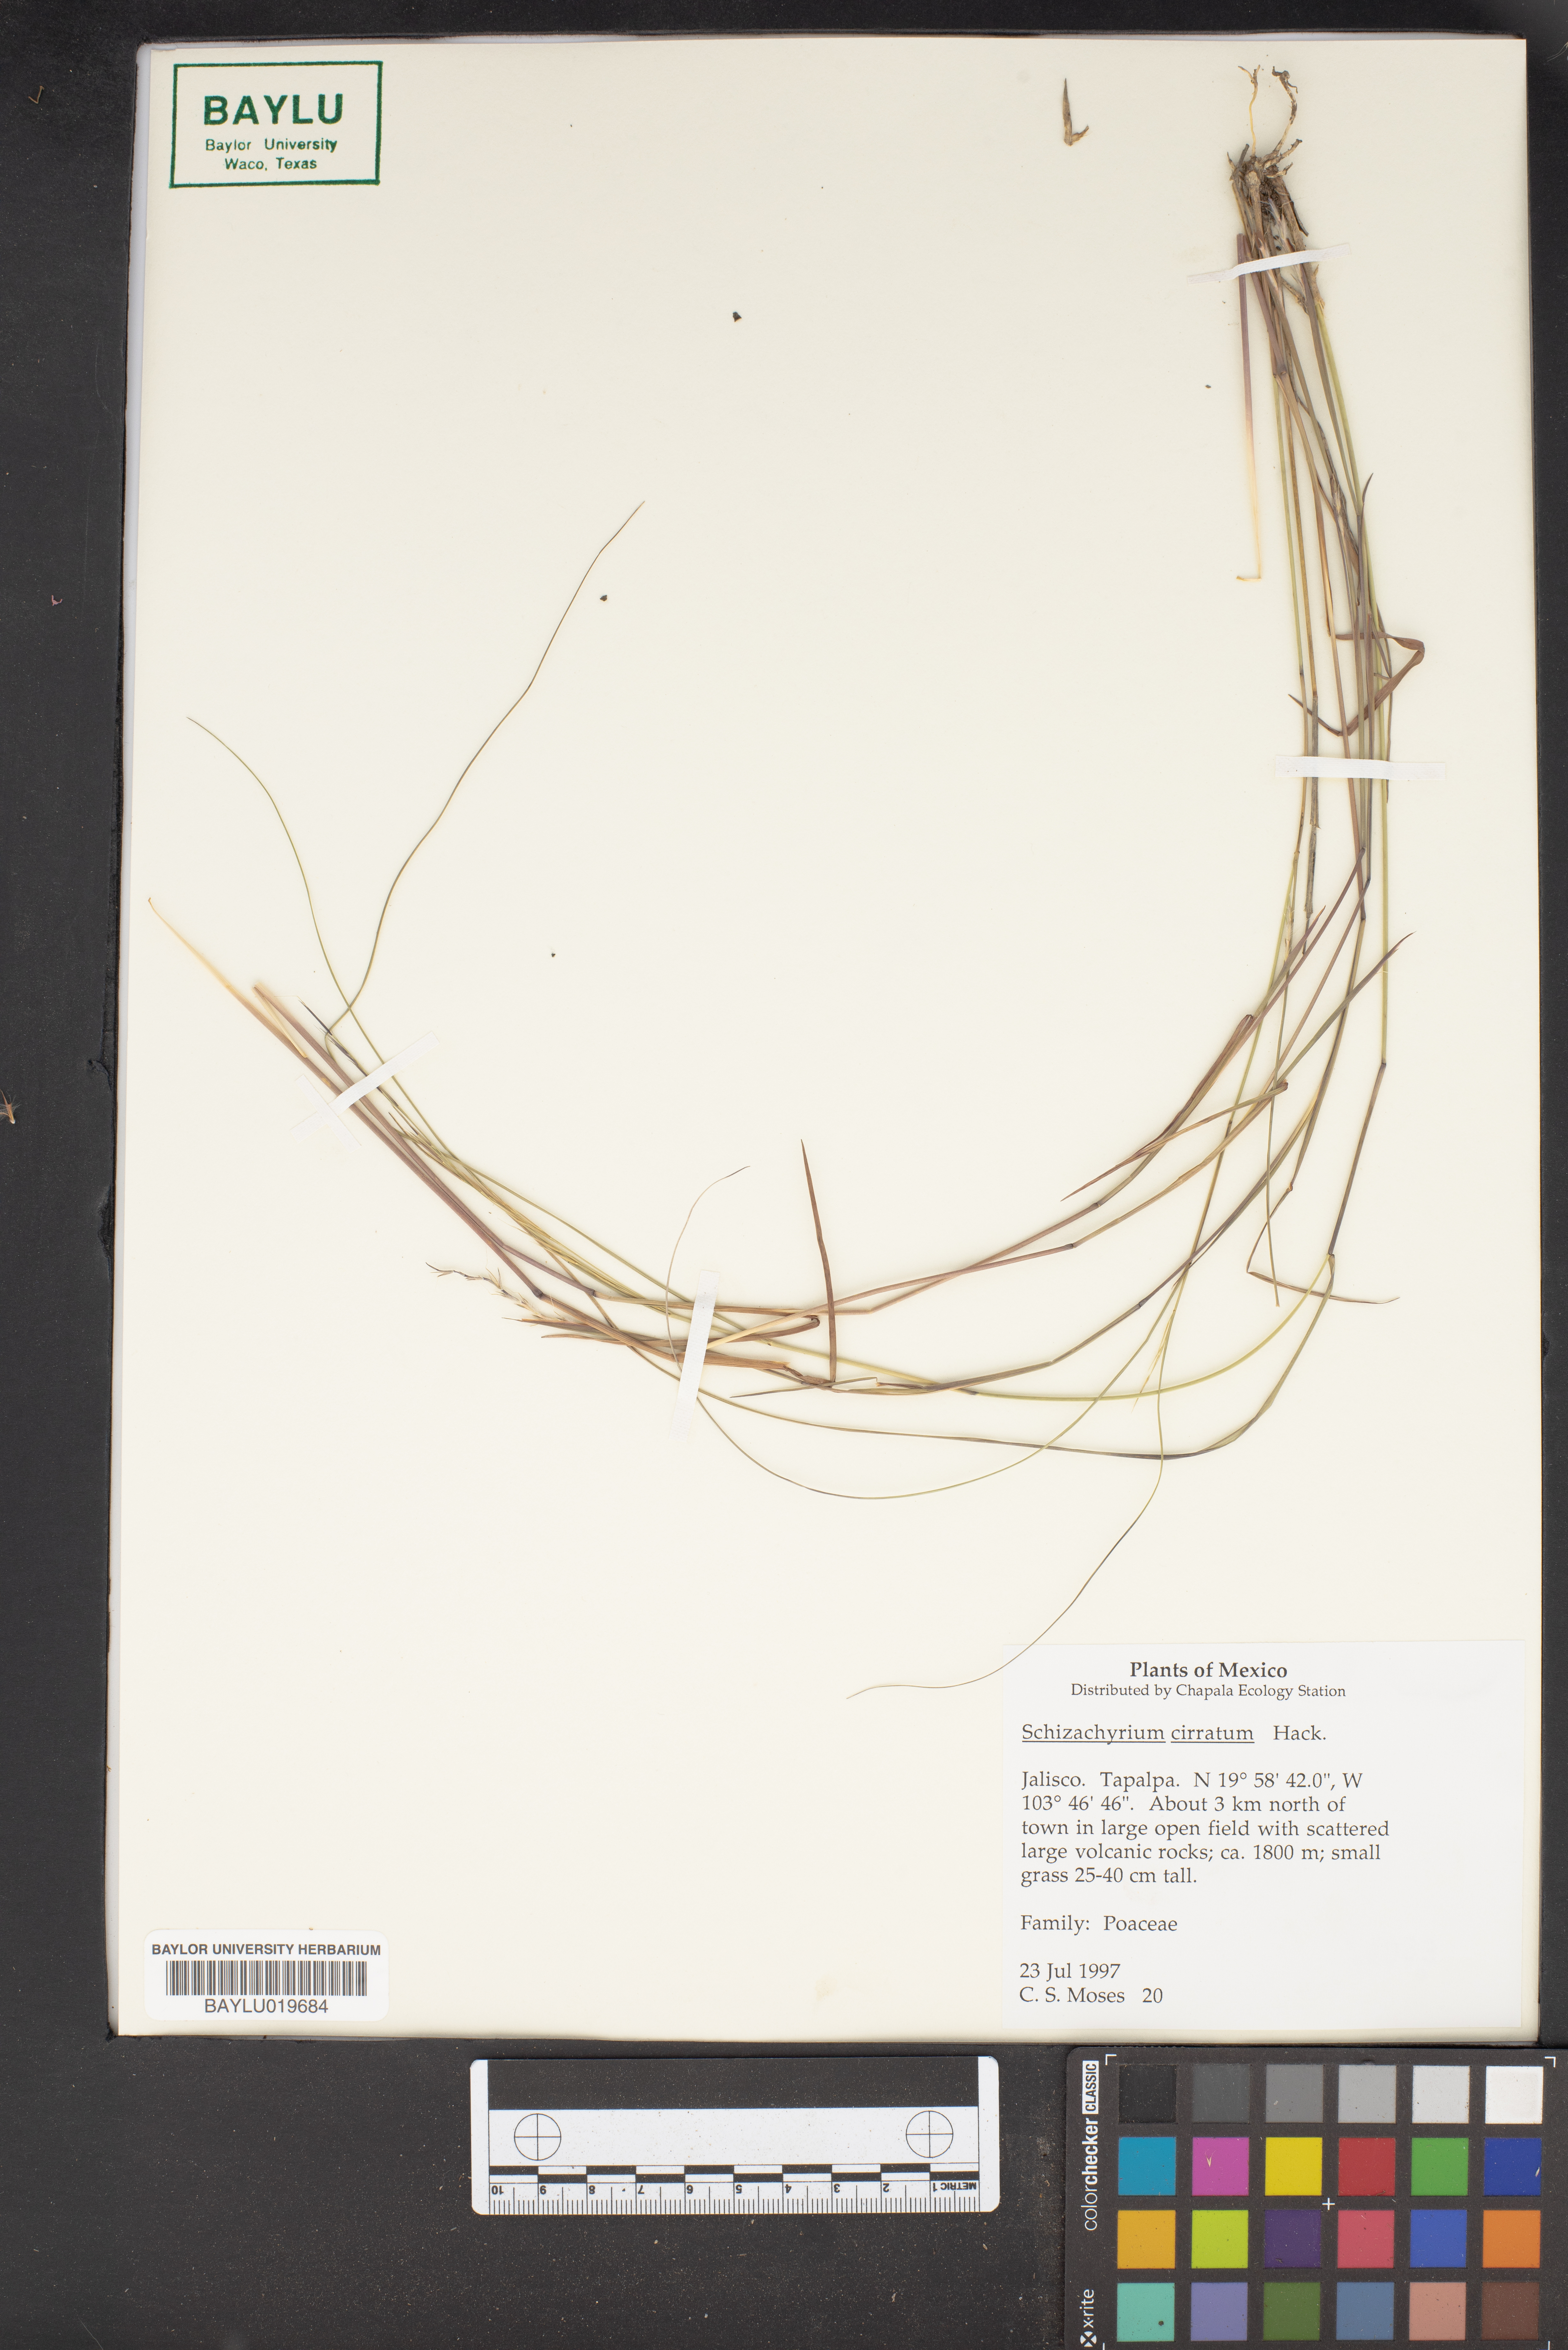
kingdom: Plantae
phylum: Tracheophyta
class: Liliopsida
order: Poales
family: Poaceae
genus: Andropogon
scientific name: Andropogon cirratus
